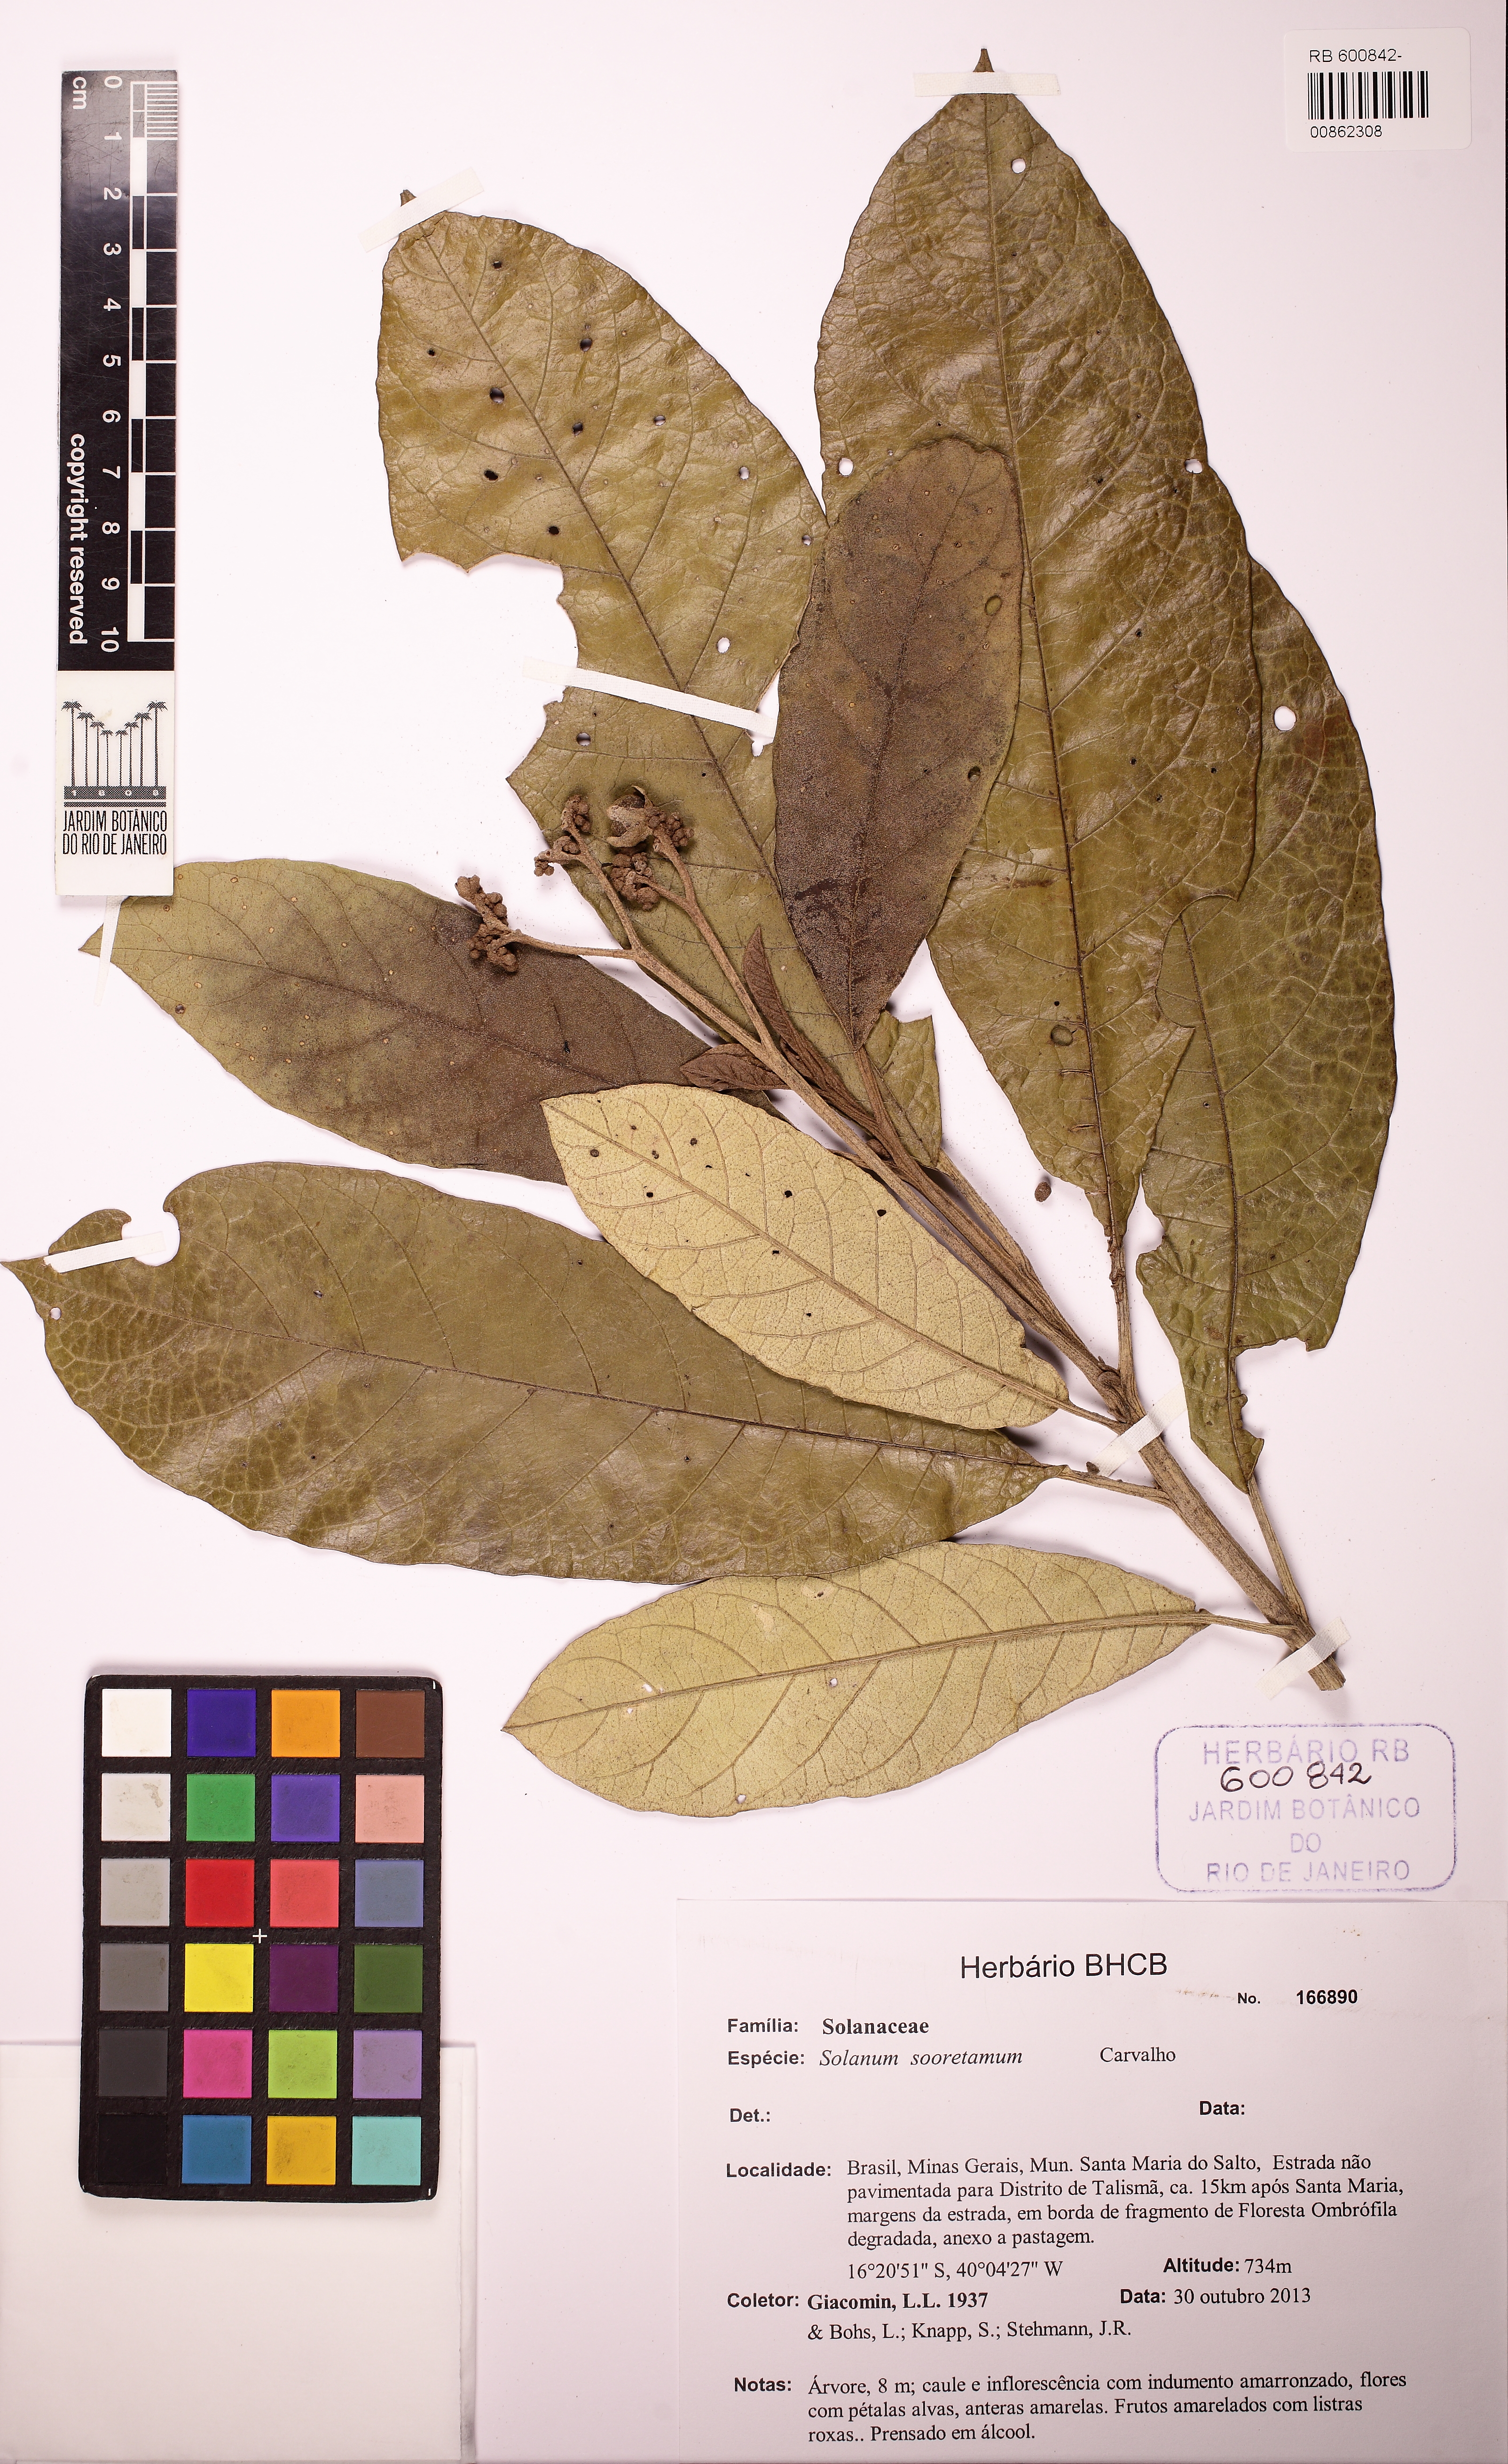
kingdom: Plantae
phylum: Tracheophyta
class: Magnoliopsida
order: Solanales
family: Solanaceae
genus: Solanum
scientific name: Solanum sooretamum
